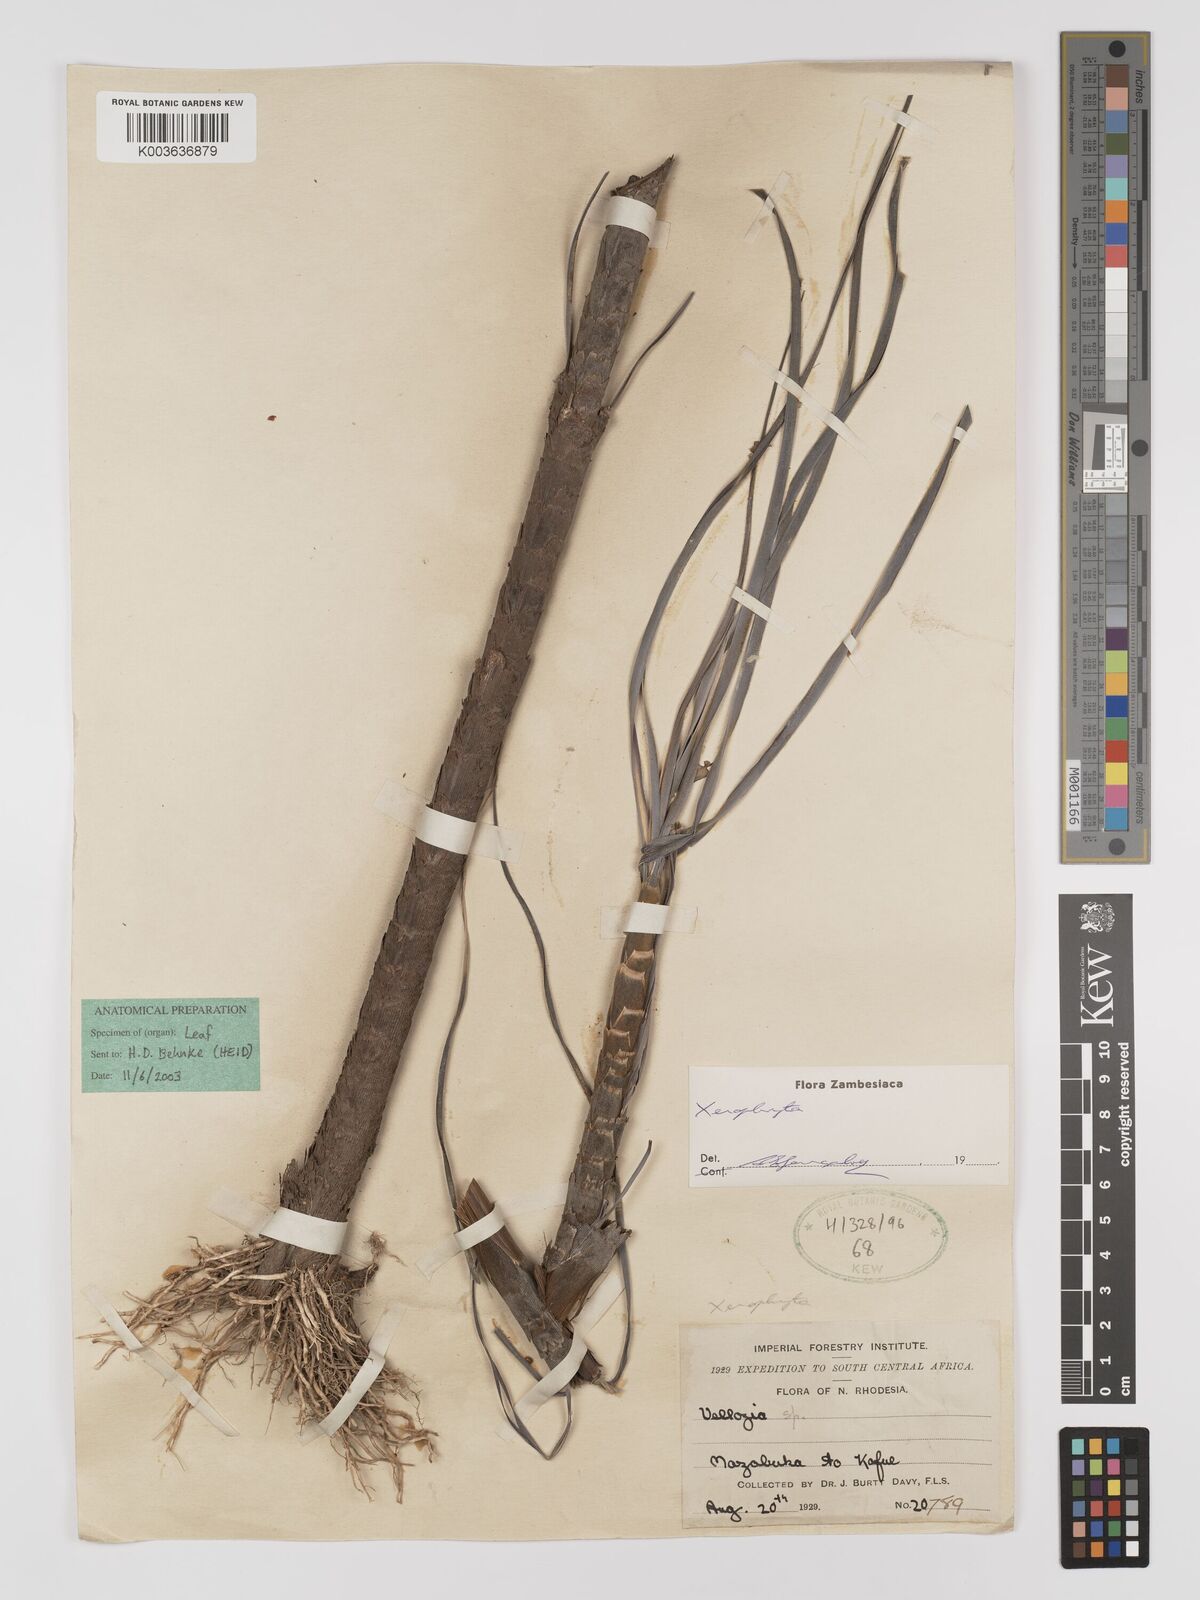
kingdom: Plantae
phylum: Tracheophyta
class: Liliopsida
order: Pandanales
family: Velloziaceae
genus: Xerophyta
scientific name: Xerophyta
